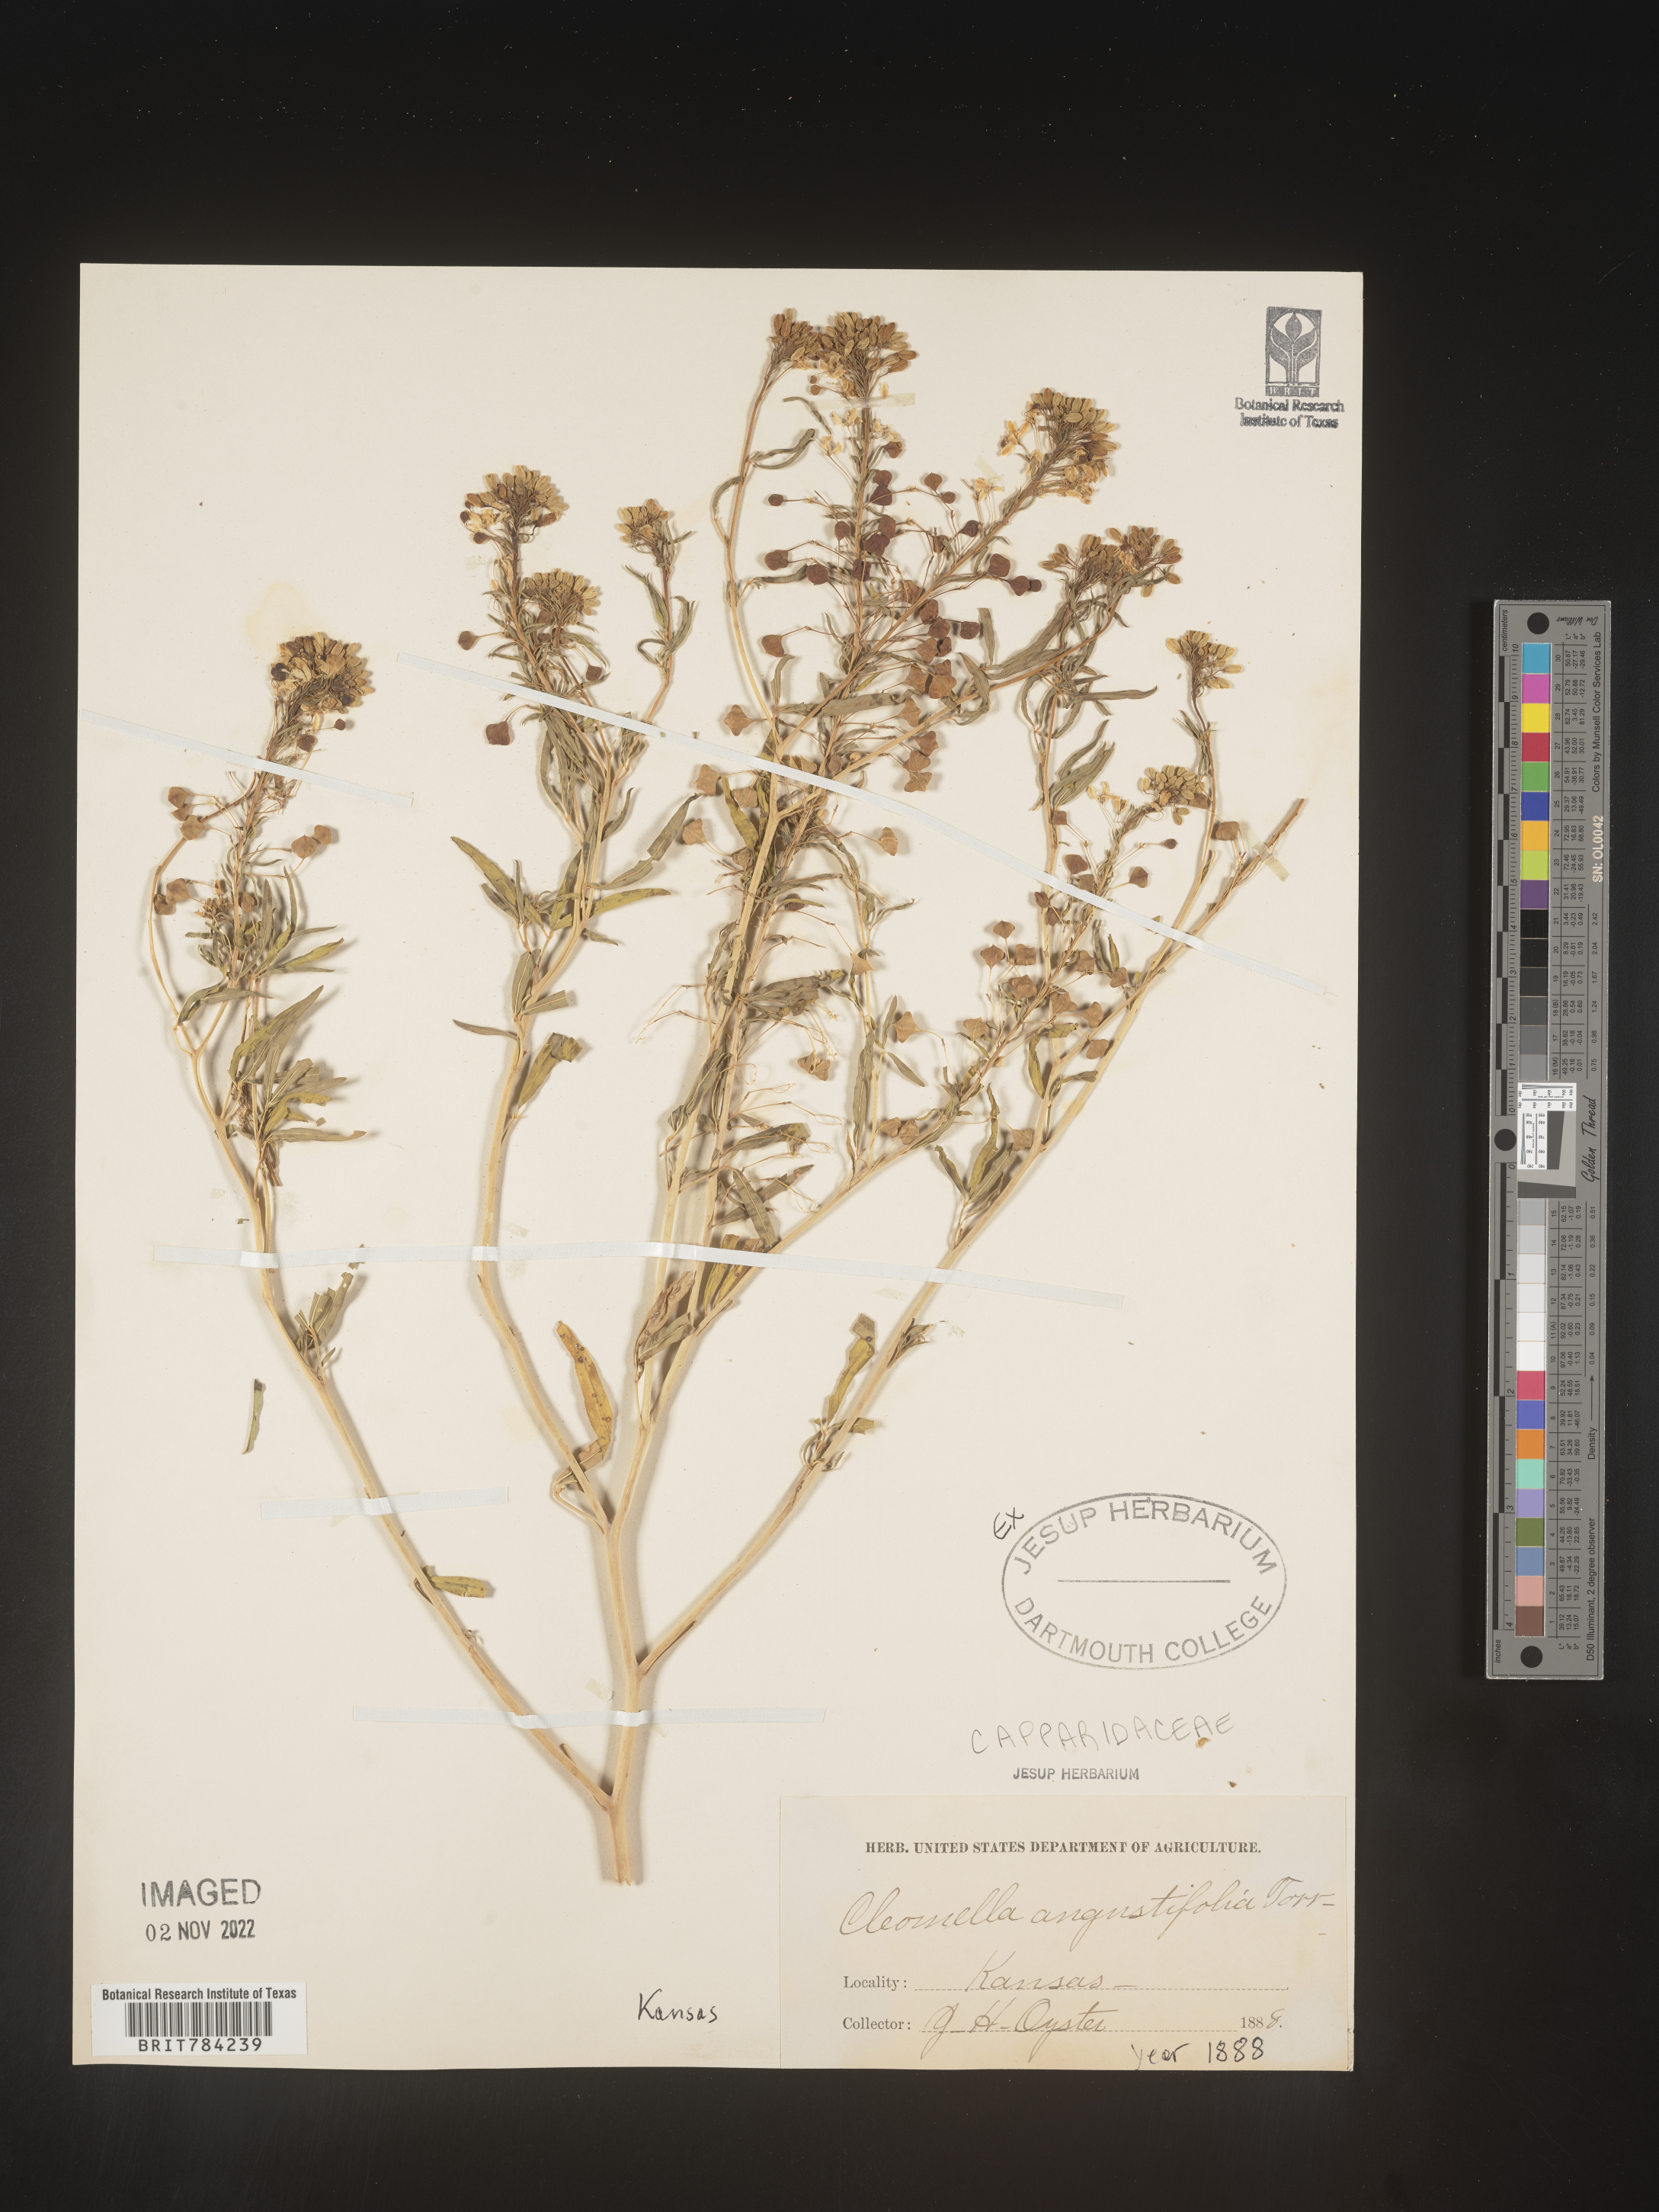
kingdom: Plantae
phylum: Tracheophyta
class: Magnoliopsida
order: Brassicales
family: Cleomaceae
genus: Cleomella
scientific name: Cleomella
